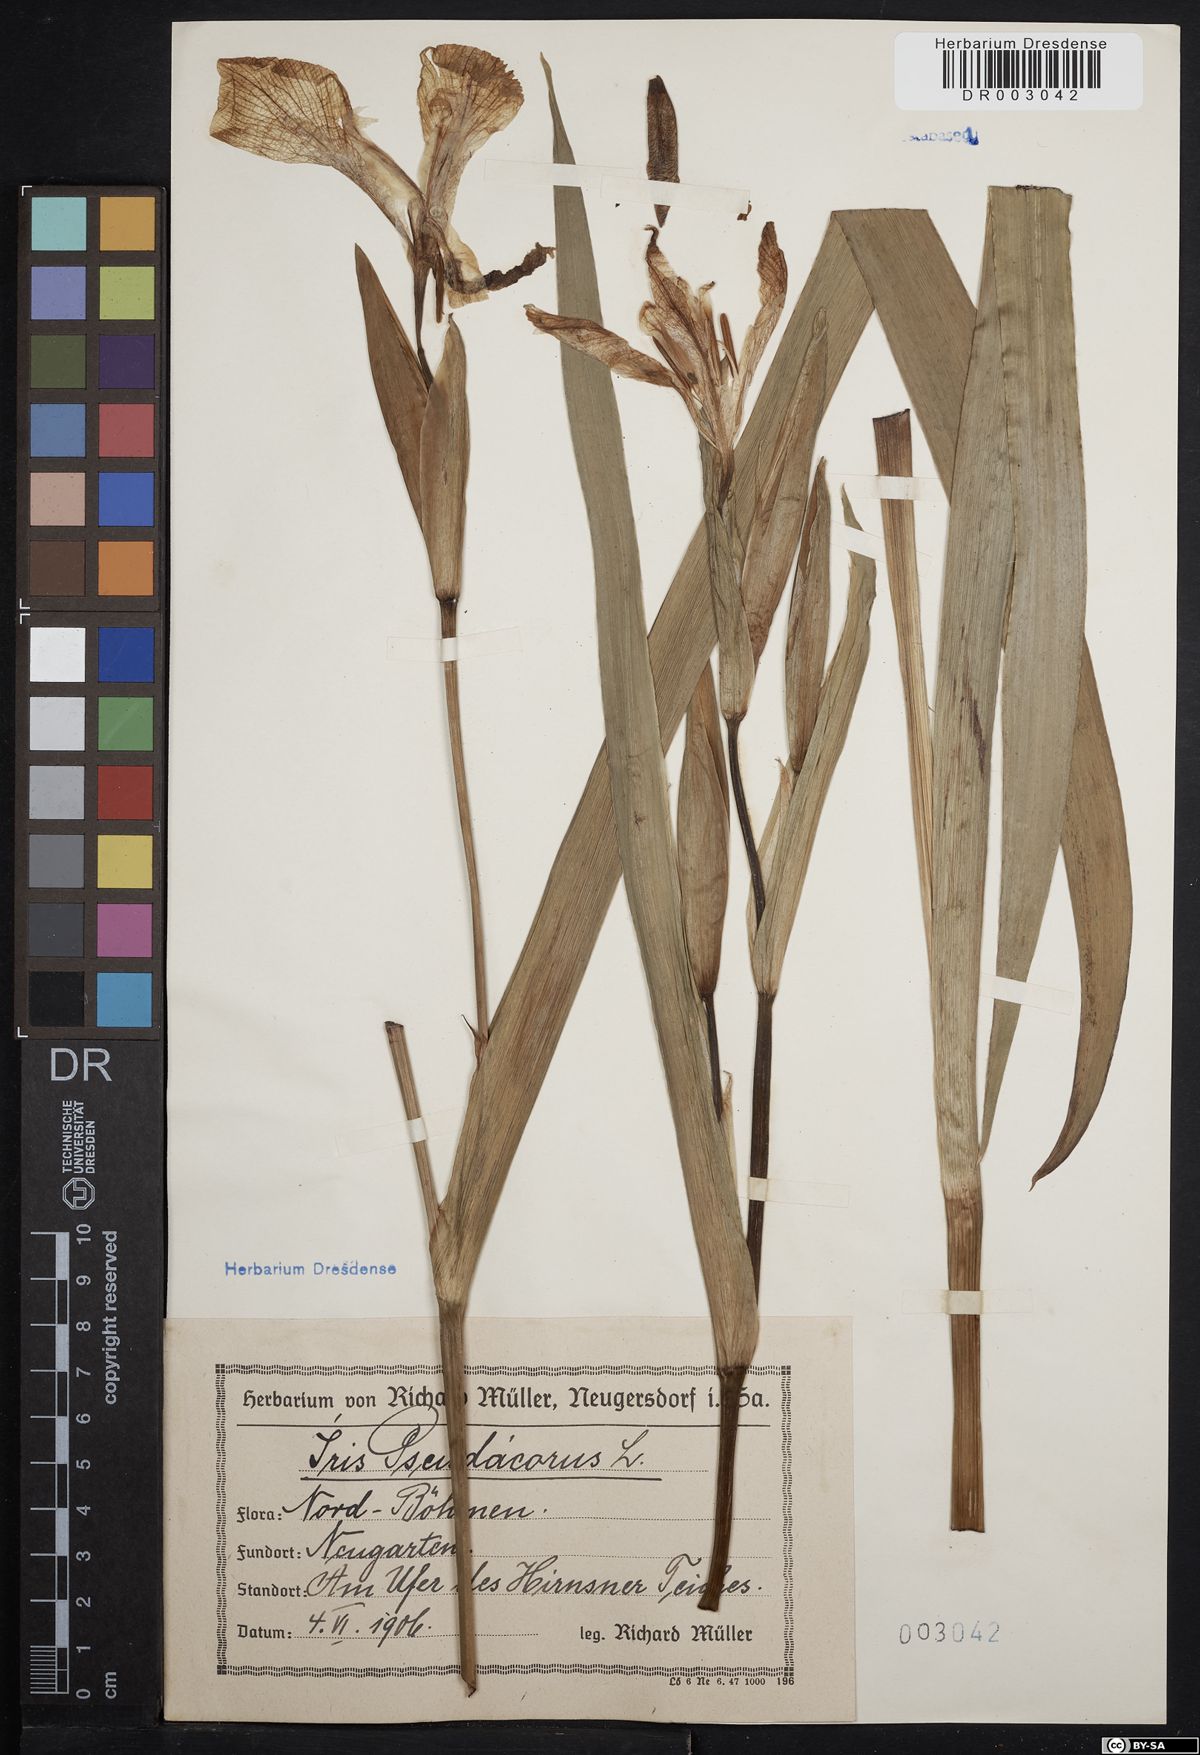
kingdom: Plantae
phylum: Tracheophyta
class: Liliopsida
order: Asparagales
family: Iridaceae
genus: Iris
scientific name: Iris pseudacorus
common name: Yellow flag
